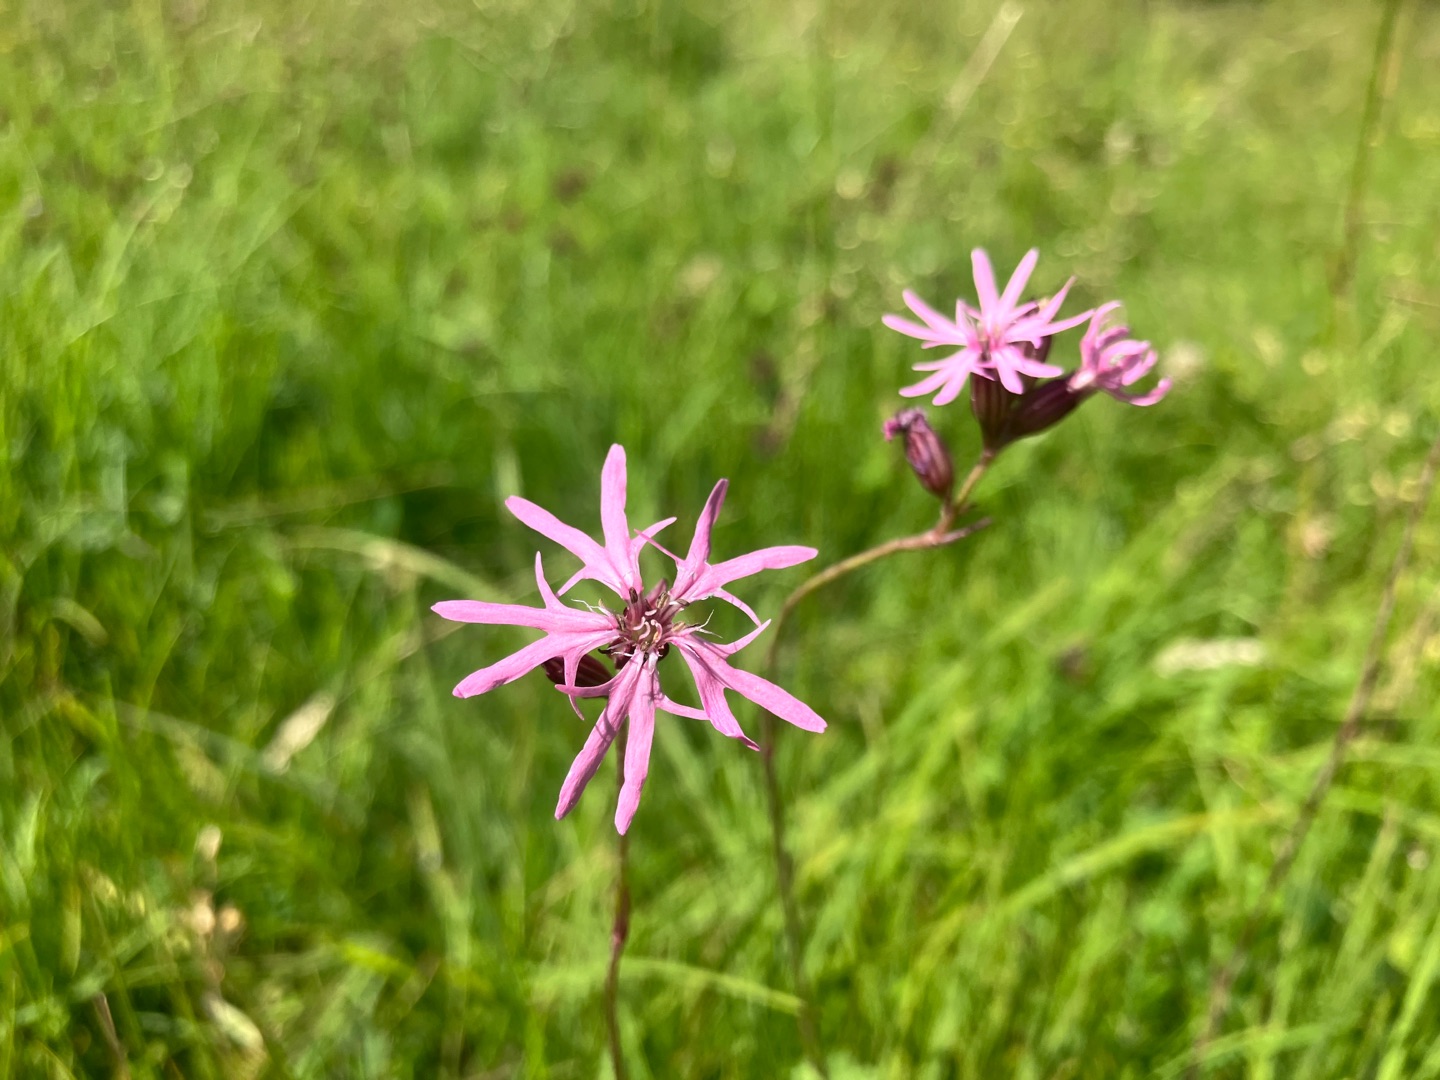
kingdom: Plantae
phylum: Tracheophyta
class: Magnoliopsida
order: Caryophyllales
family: Caryophyllaceae
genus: Silene
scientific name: Silene flos-cuculi
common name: Trævlekrone
